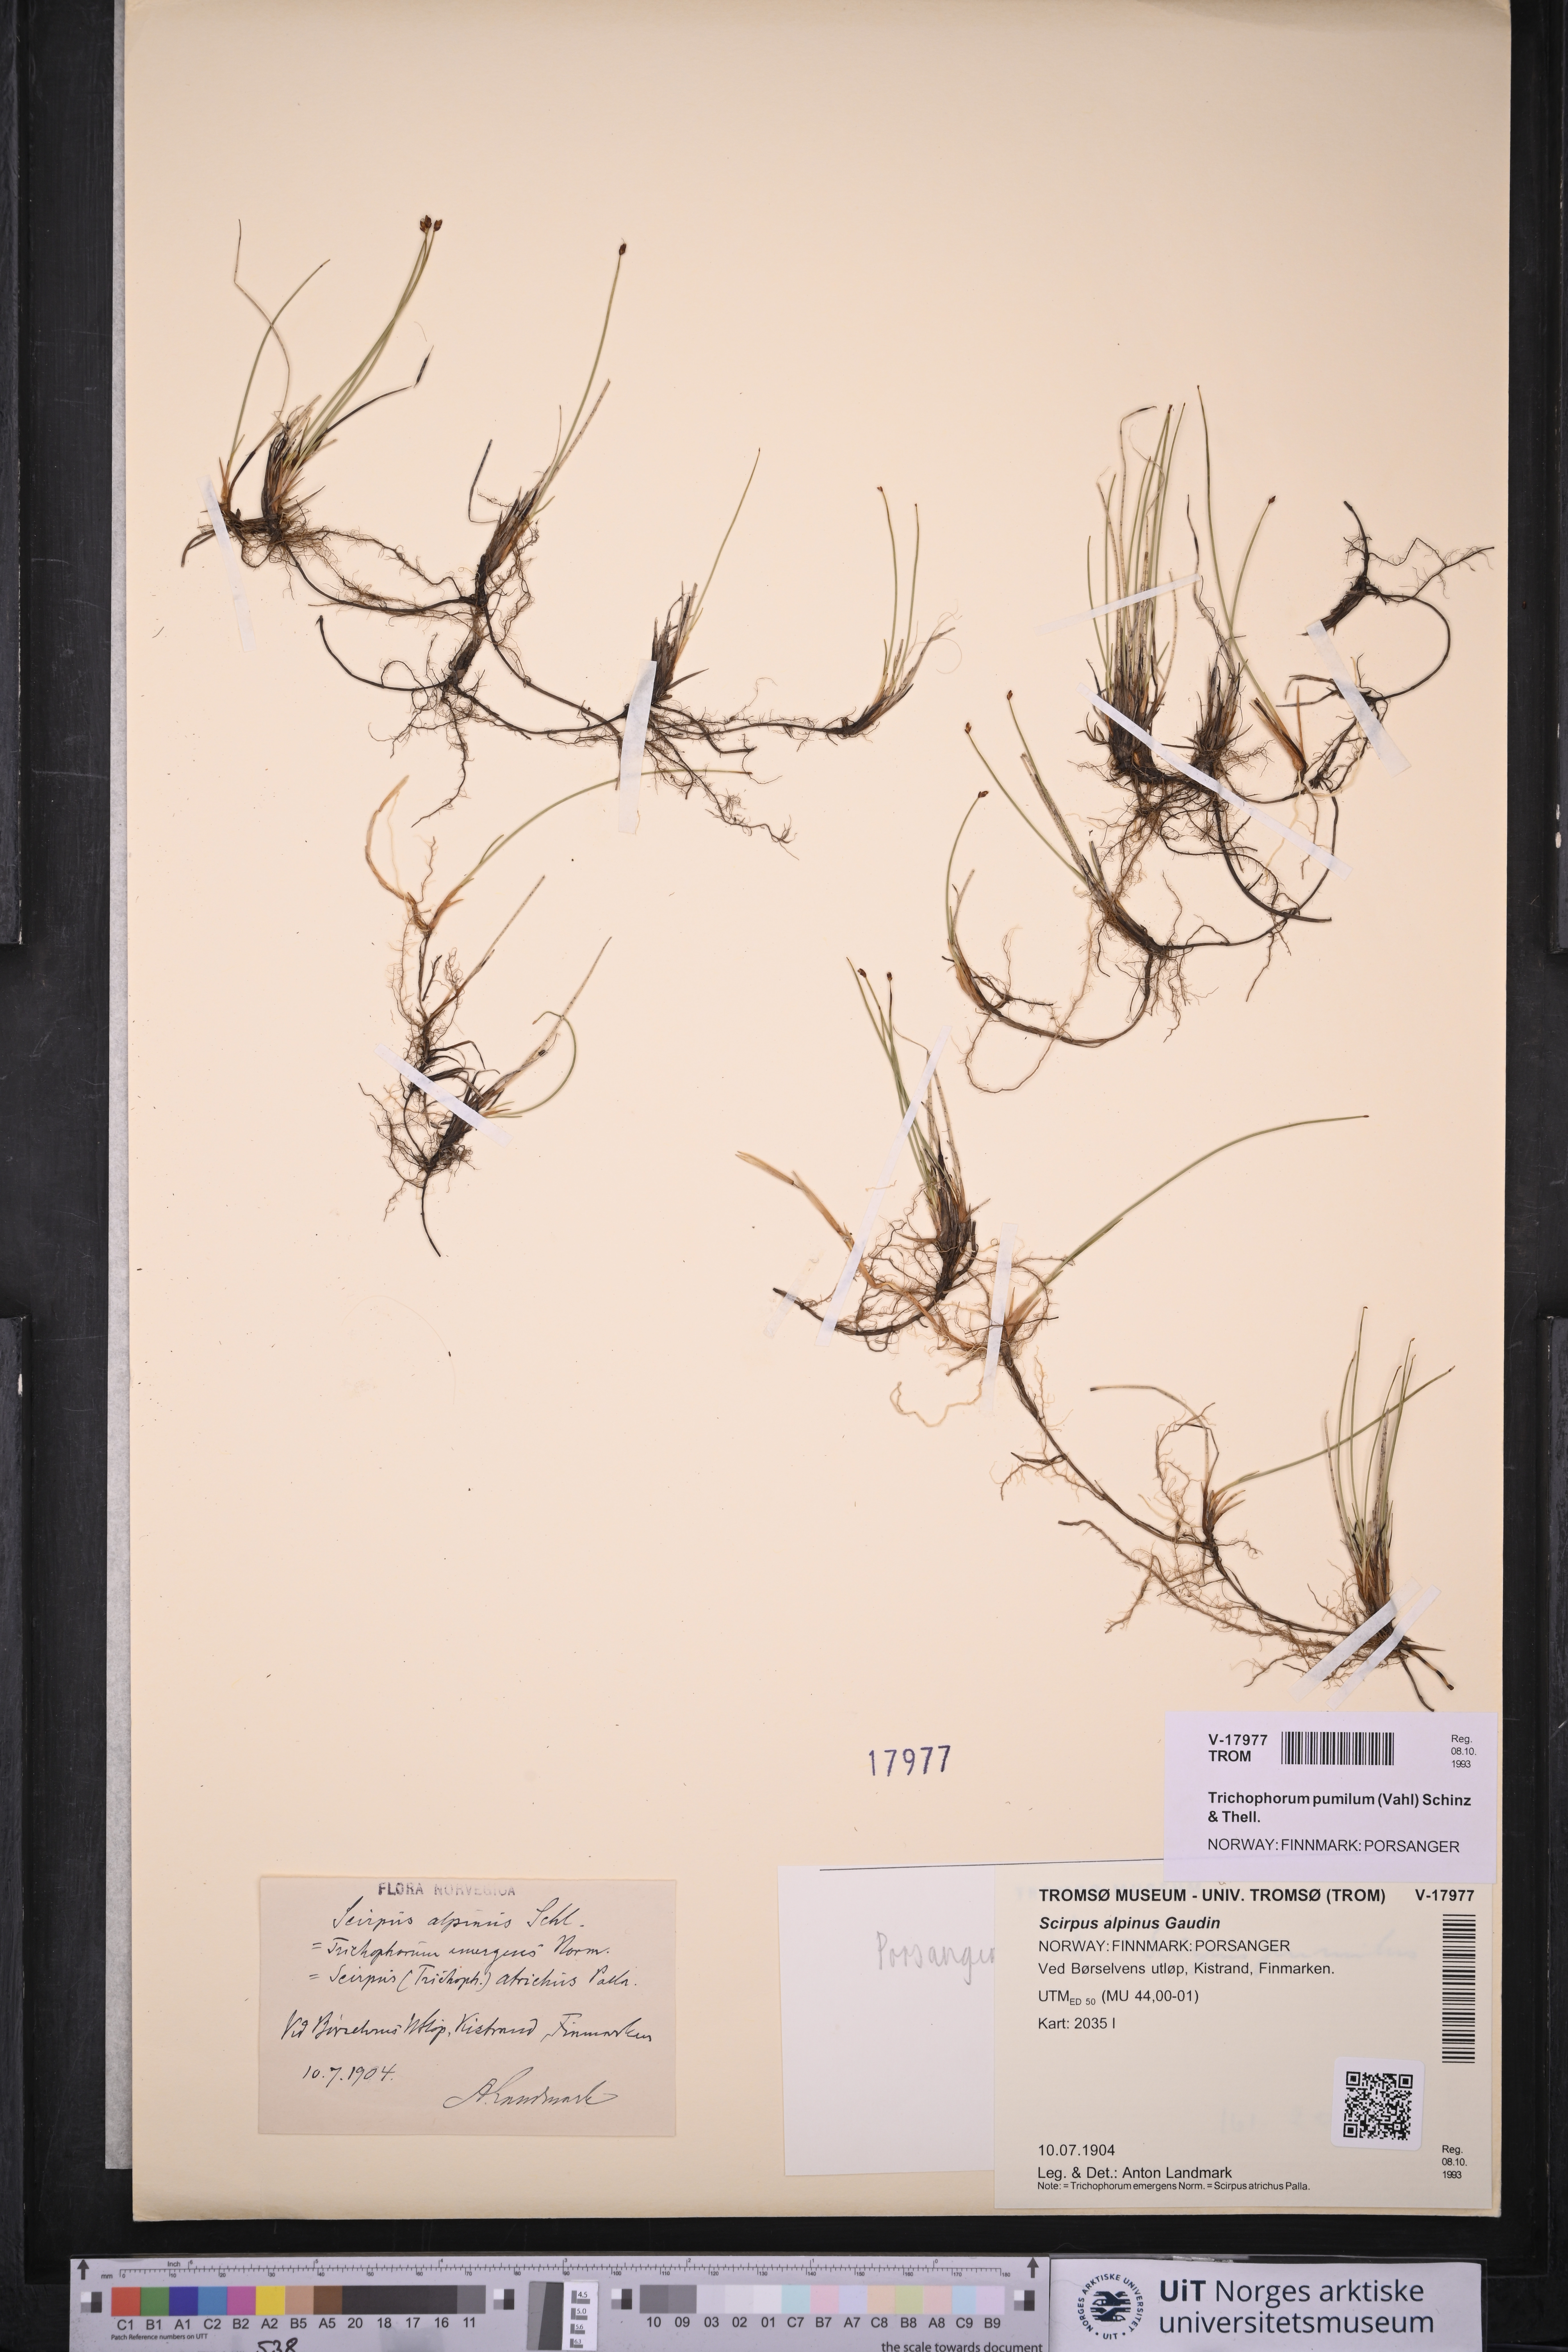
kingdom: Plantae
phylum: Tracheophyta
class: Liliopsida
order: Poales
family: Cyperaceae
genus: Trichophorum
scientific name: Trichophorum pumilum
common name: Rolland's bulrush
